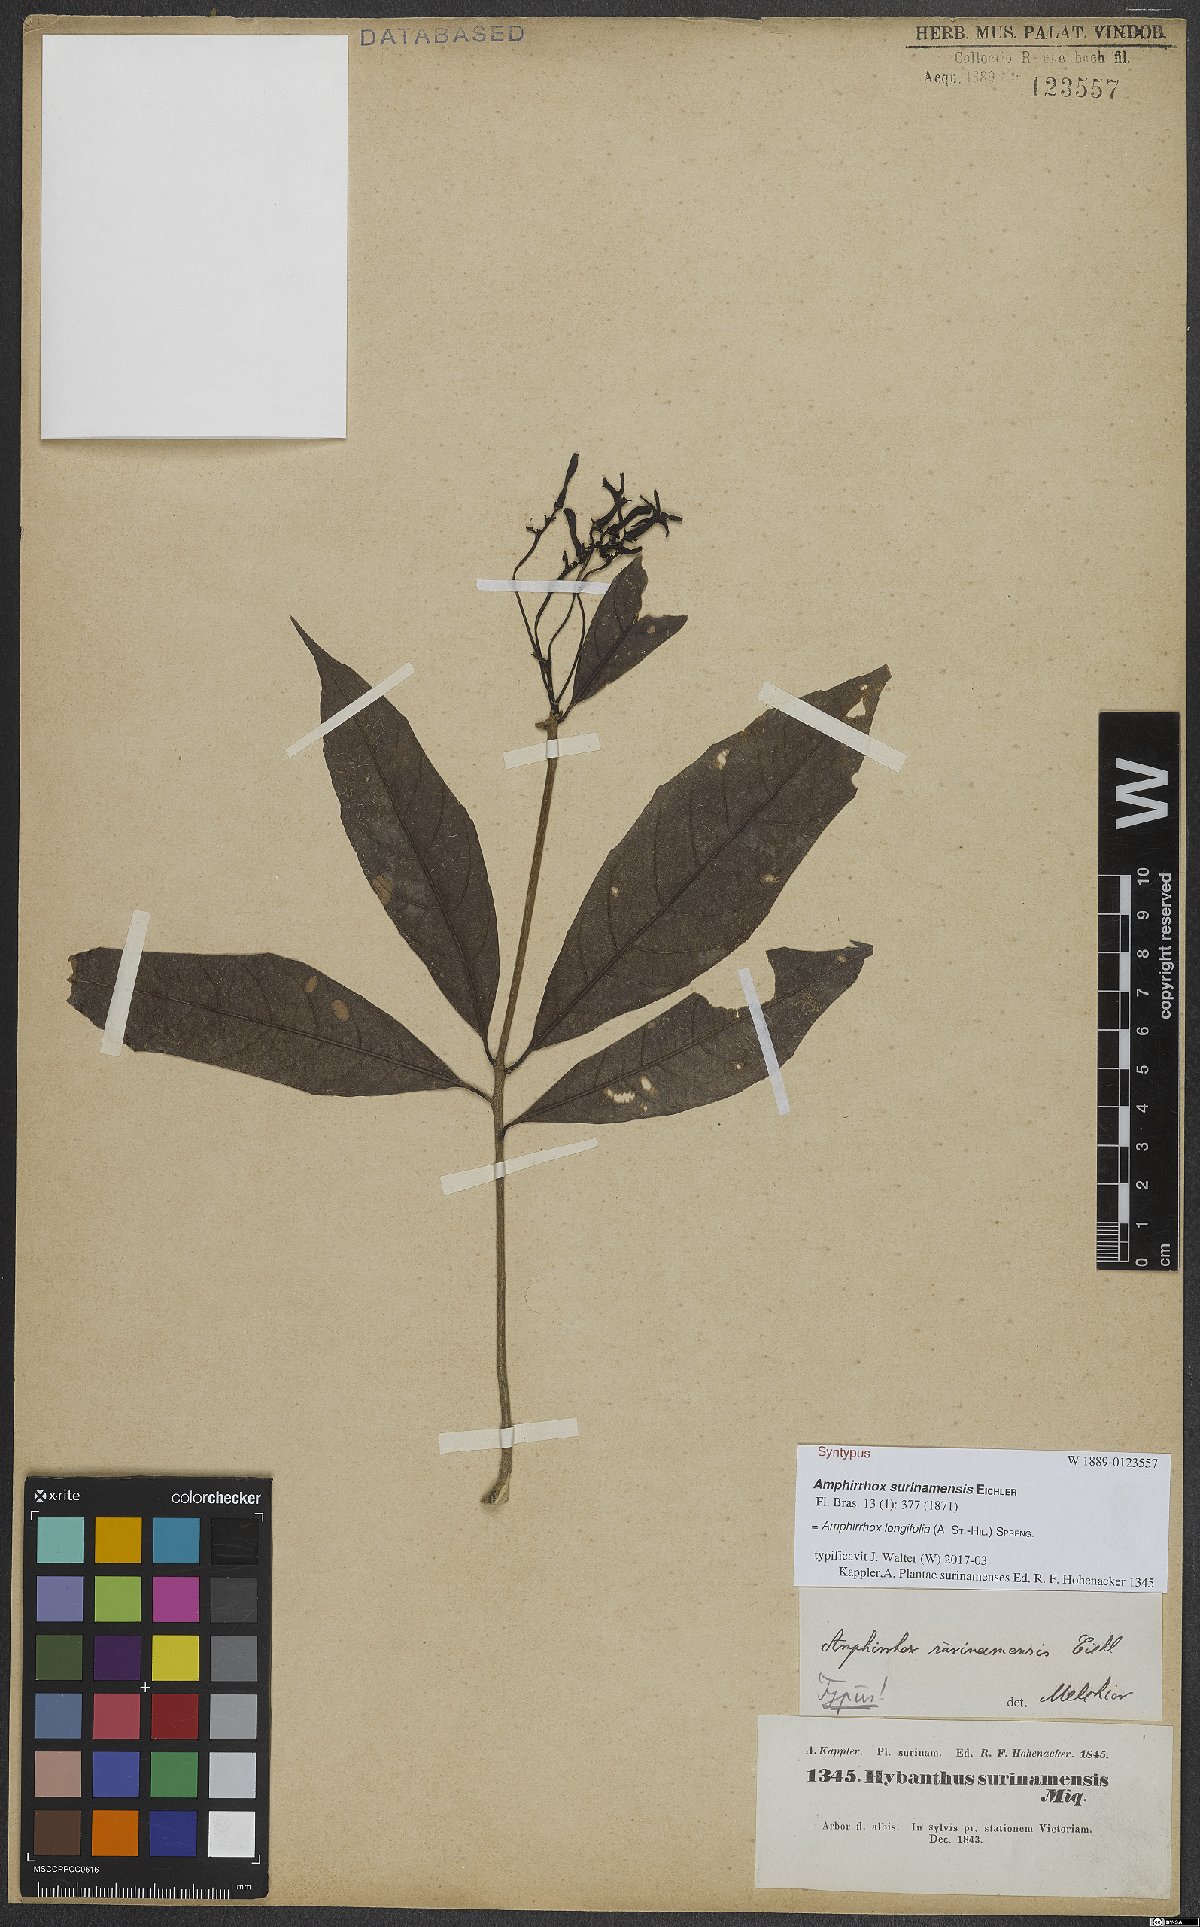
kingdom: Plantae
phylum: Tracheophyta
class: Magnoliopsida
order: Malpighiales
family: Violaceae
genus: Amphirrhox
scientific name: Amphirrhox longifolia
